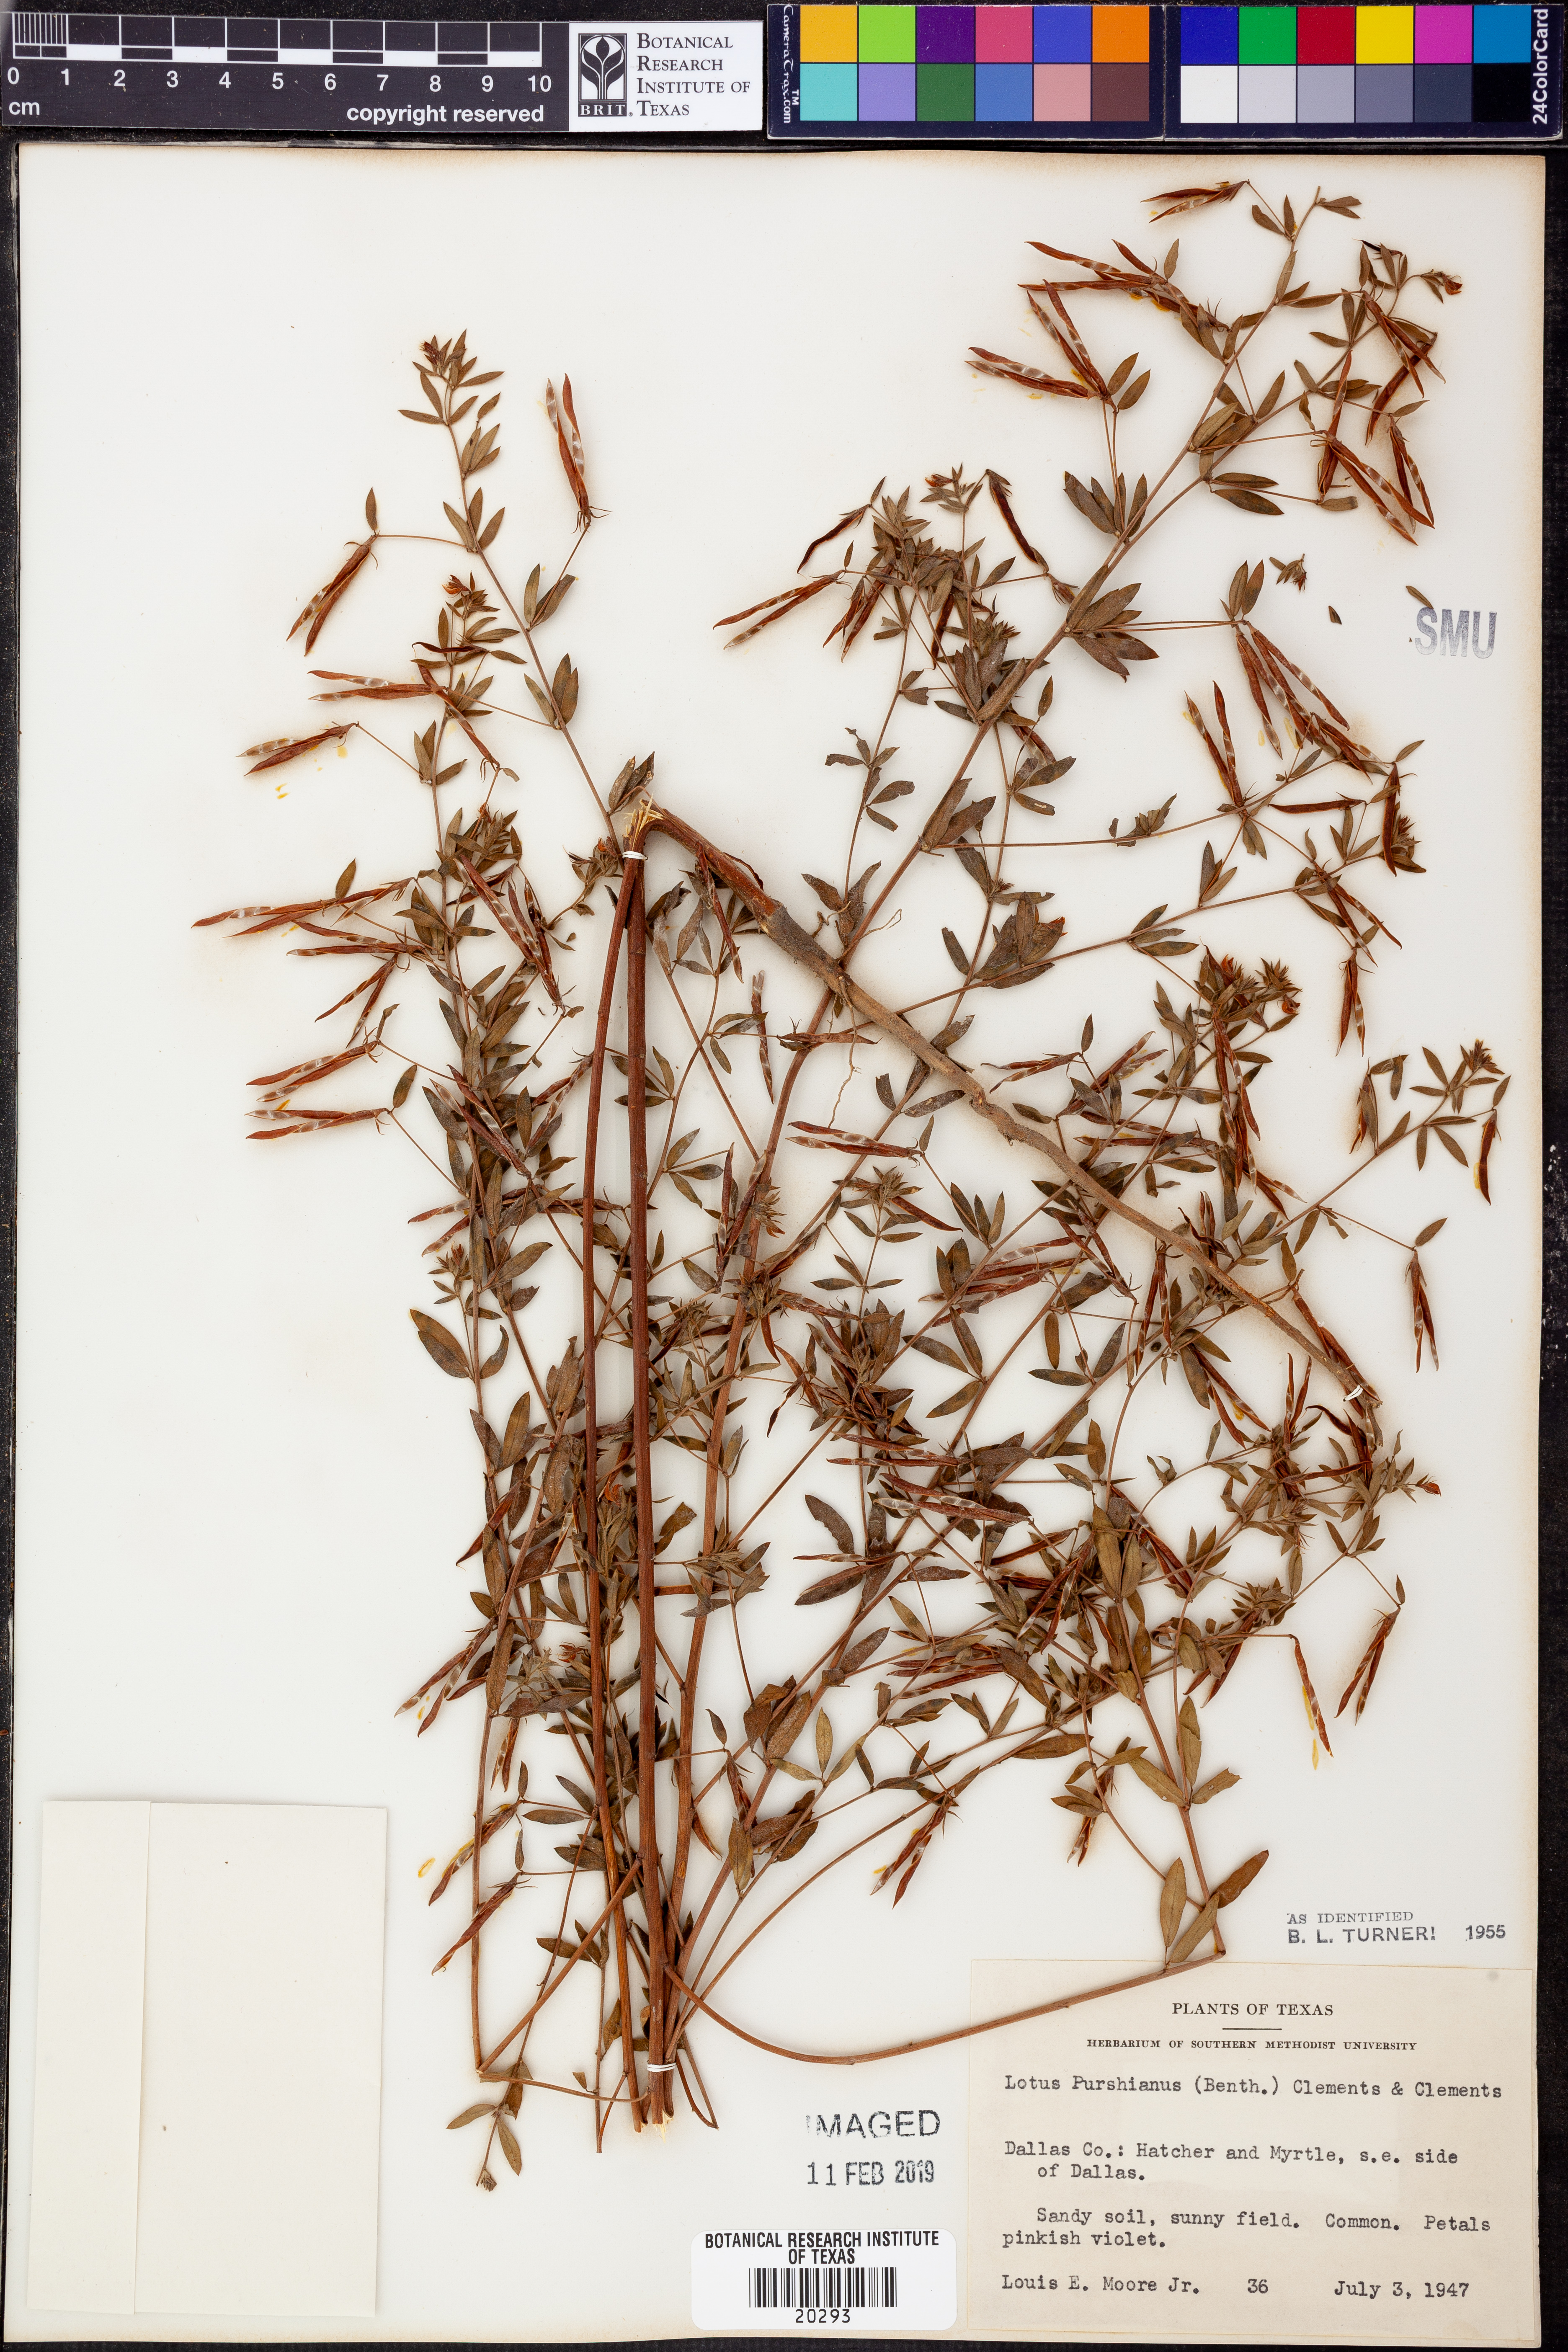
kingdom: Plantae
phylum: Tracheophyta
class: Magnoliopsida
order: Fabales
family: Fabaceae
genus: Acmispon
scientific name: Acmispon americanus
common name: American bird's-foot trefoil
